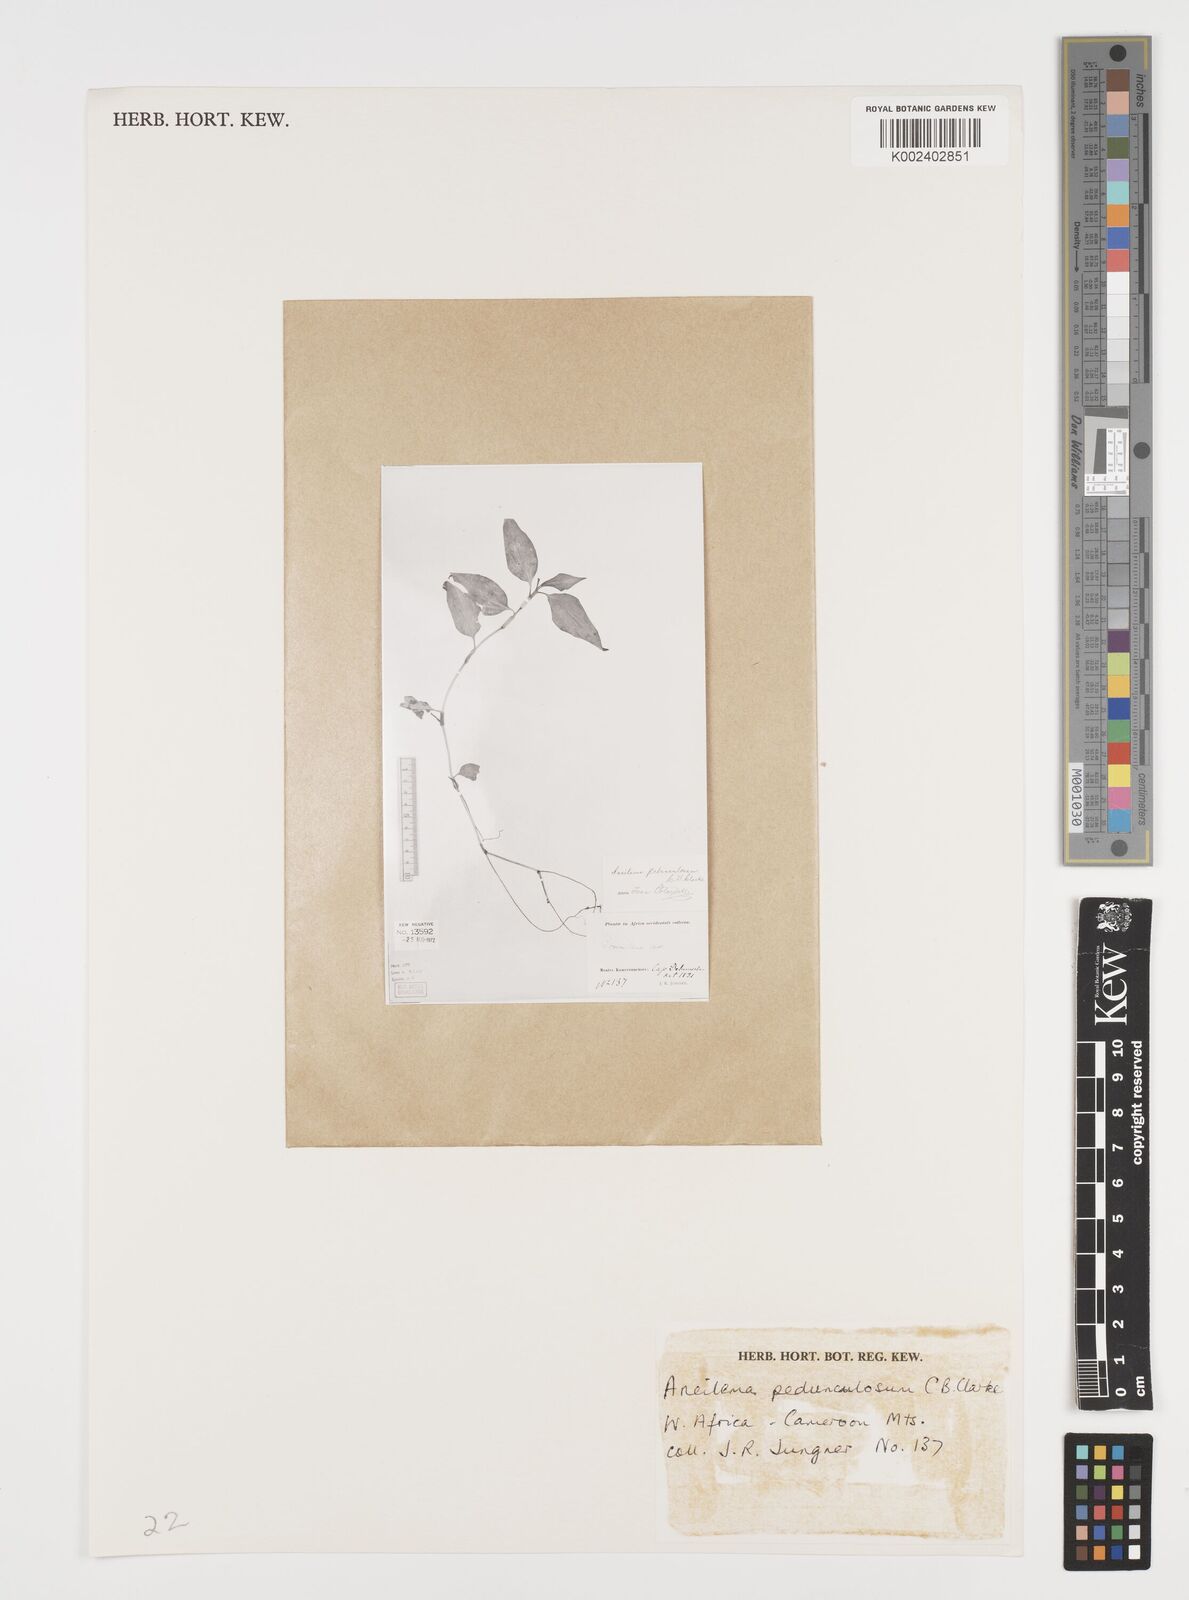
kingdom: Plantae
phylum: Tracheophyta
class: Liliopsida
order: Commelinales
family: Commelinaceae
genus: Aneilema
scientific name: Aneilema pedunculosum
